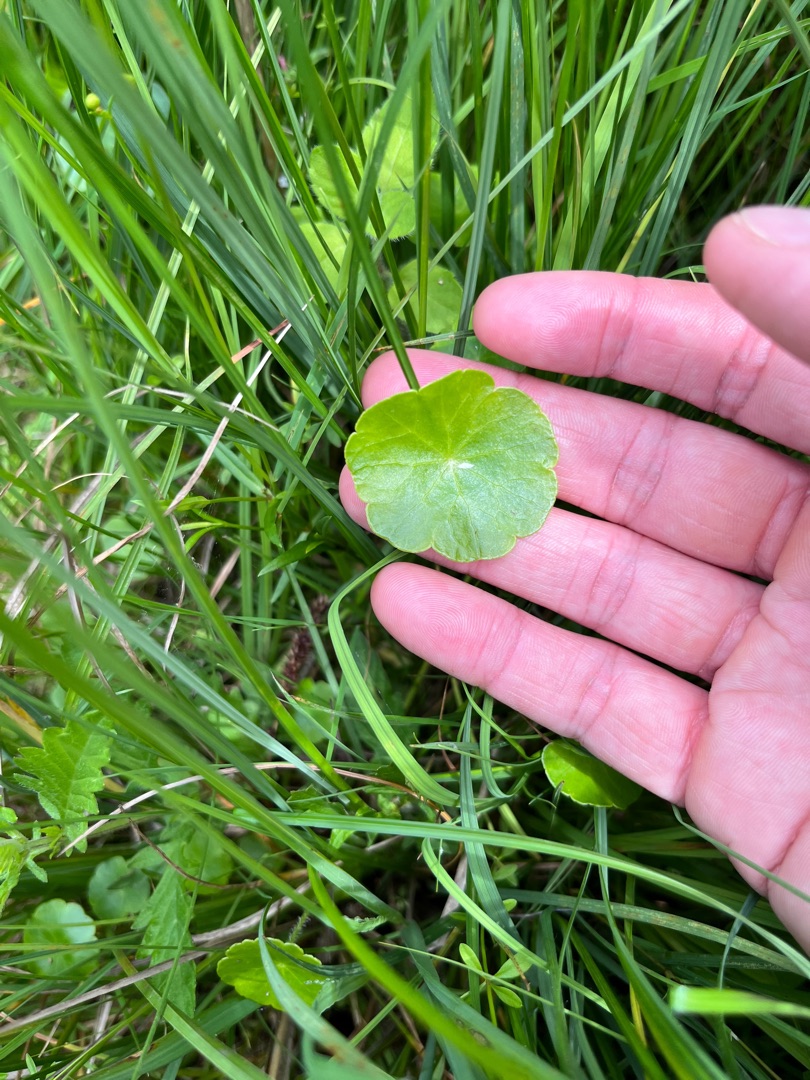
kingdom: Plantae
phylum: Tracheophyta
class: Magnoliopsida
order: Apiales
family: Araliaceae
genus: Hydrocotyle
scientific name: Hydrocotyle vulgaris
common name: Vandnavle
